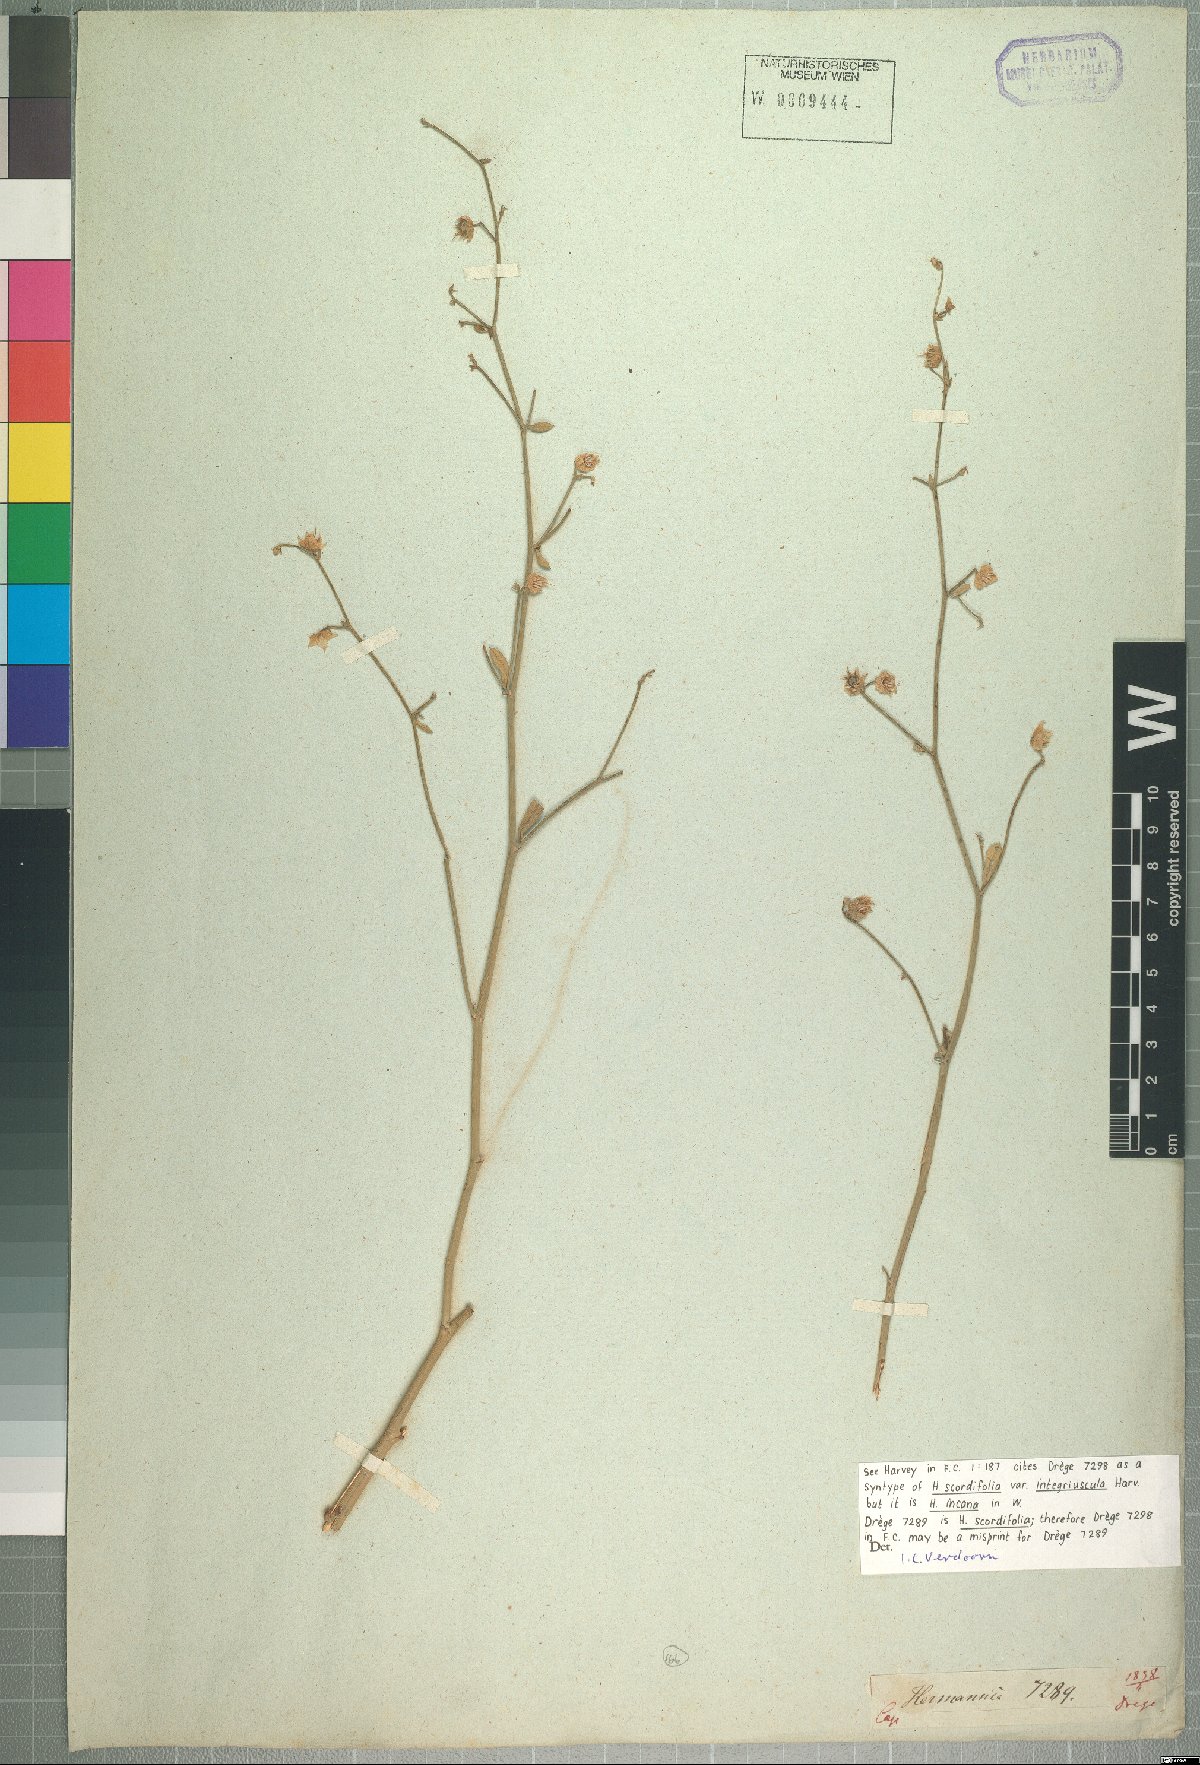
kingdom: Plantae
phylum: Tracheophyta
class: Magnoliopsida
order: Malvales
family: Malvaceae
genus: Hermannia
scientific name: Hermannia scordifolia
